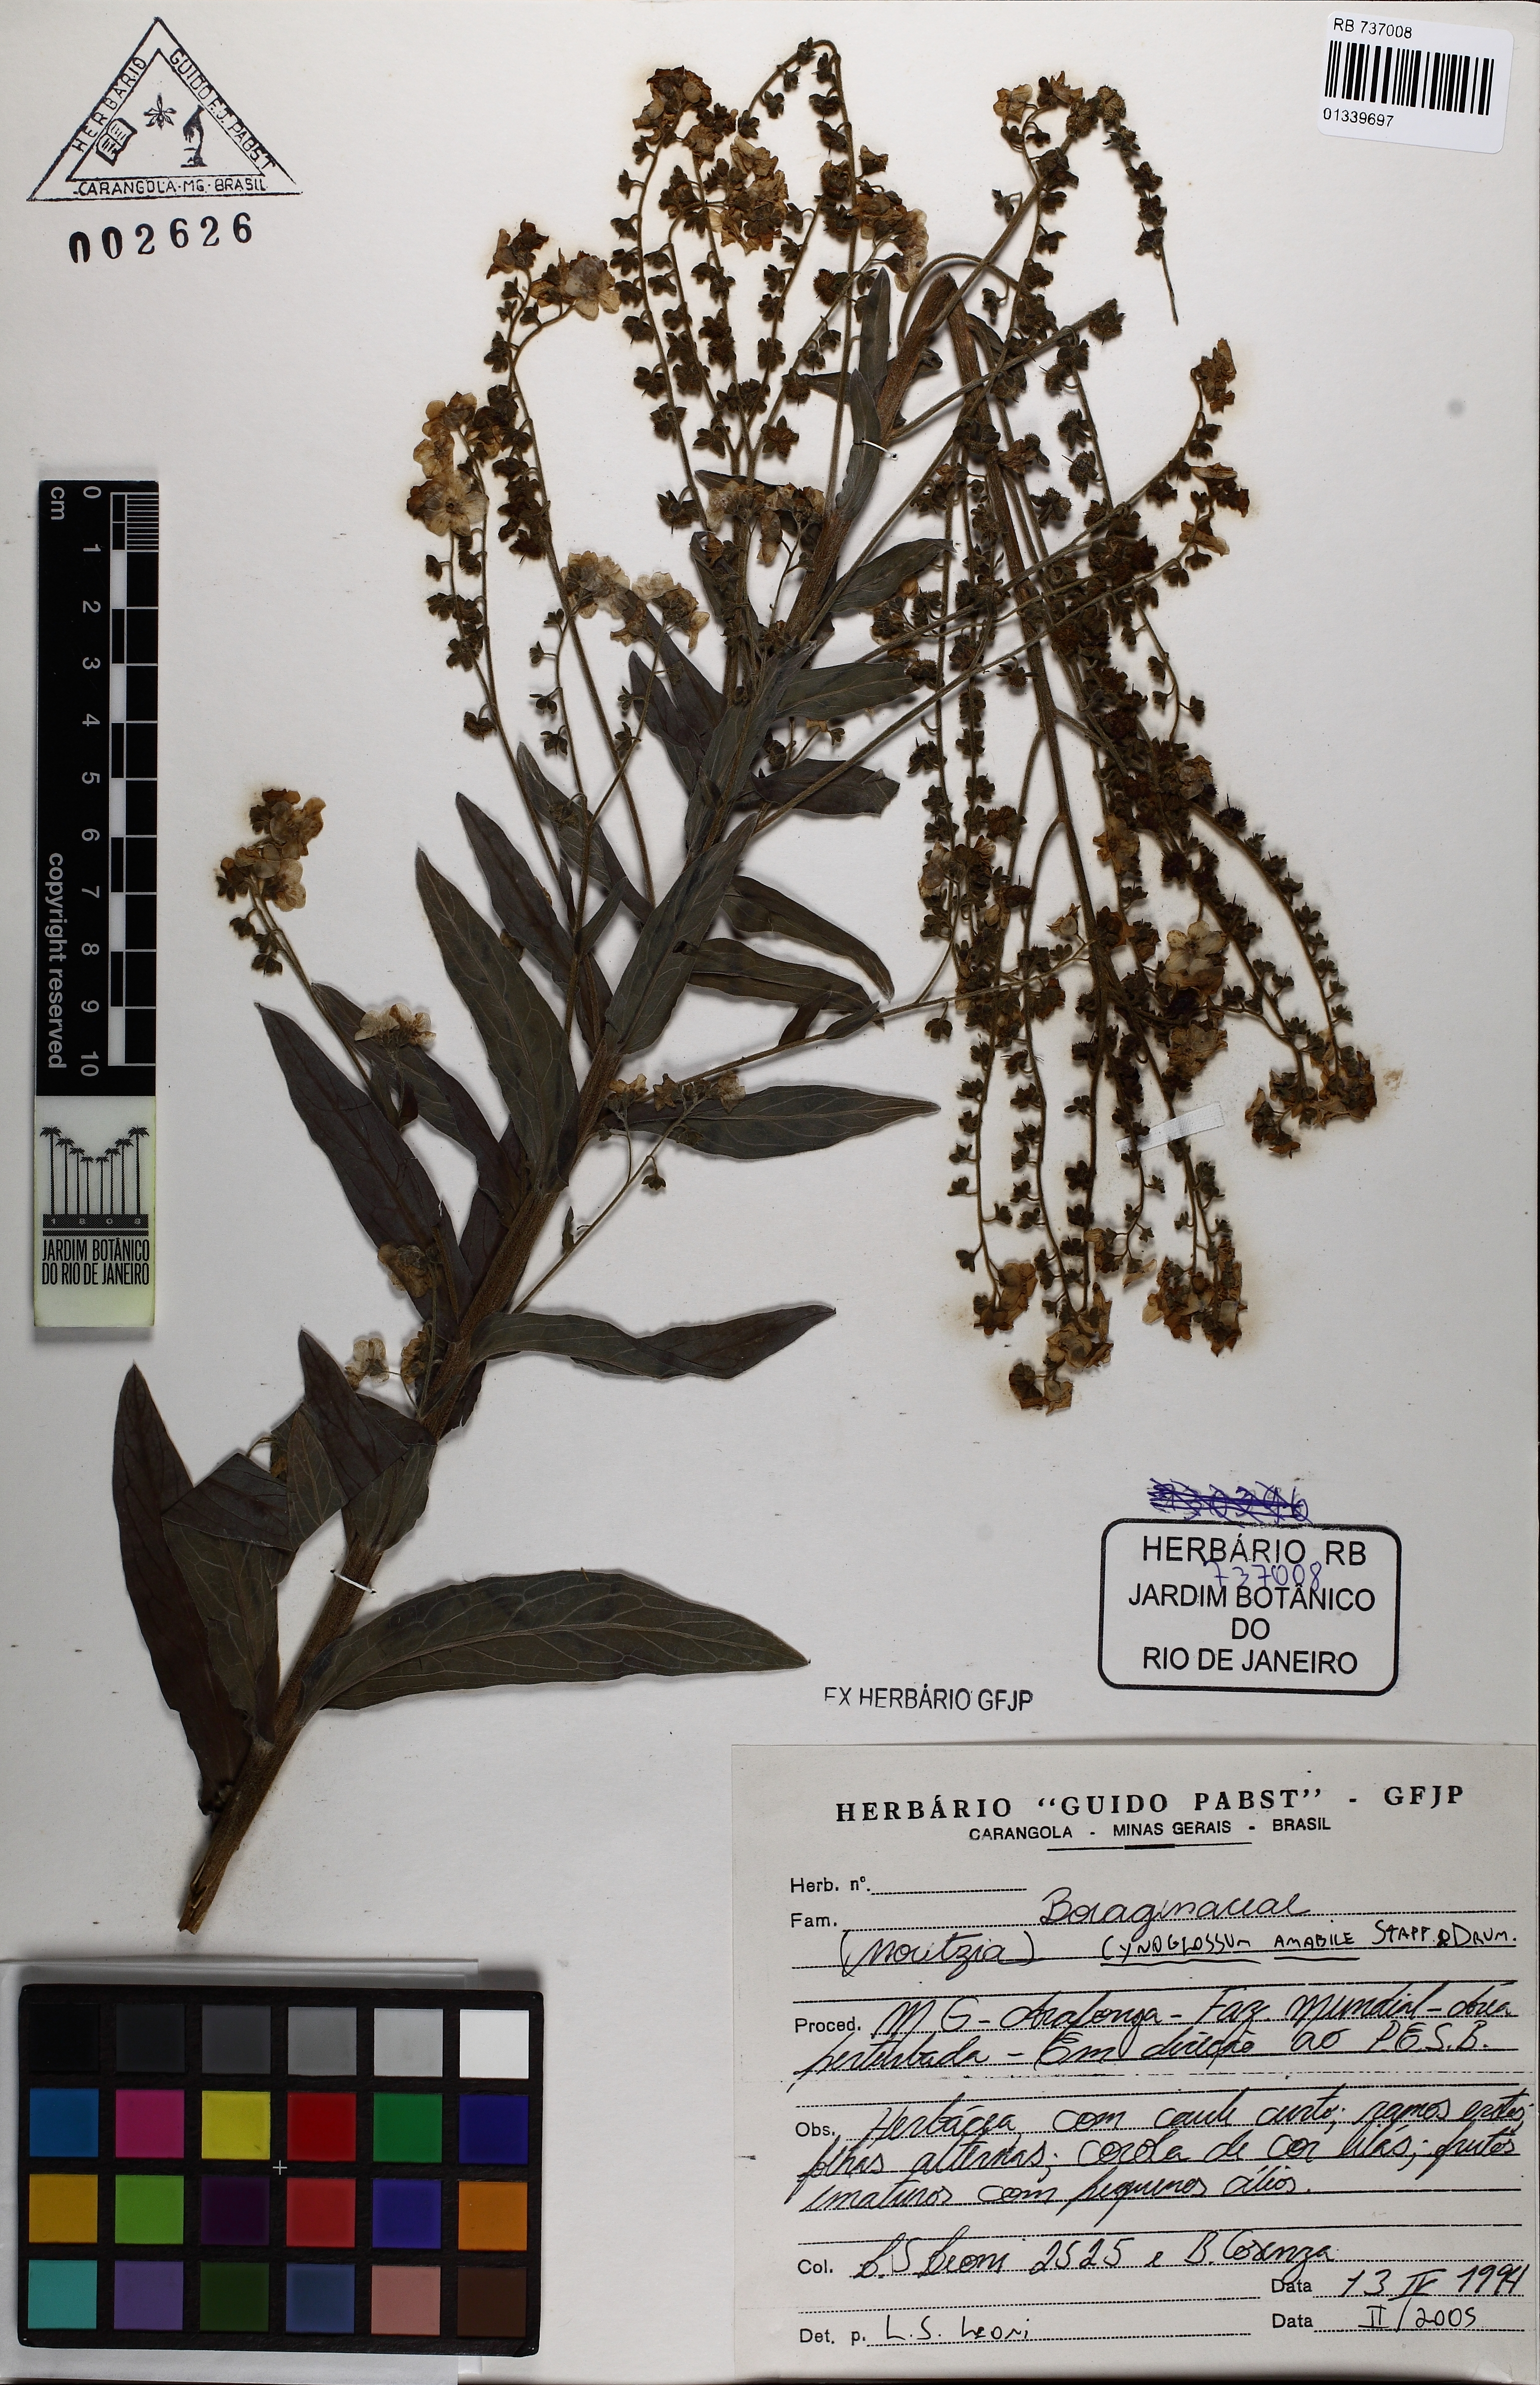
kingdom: Plantae
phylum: Tracheophyta
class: Magnoliopsida
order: Boraginales
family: Boraginaceae
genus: Cynoglossum
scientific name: Cynoglossum amabile
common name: Chinese hound's tongue
